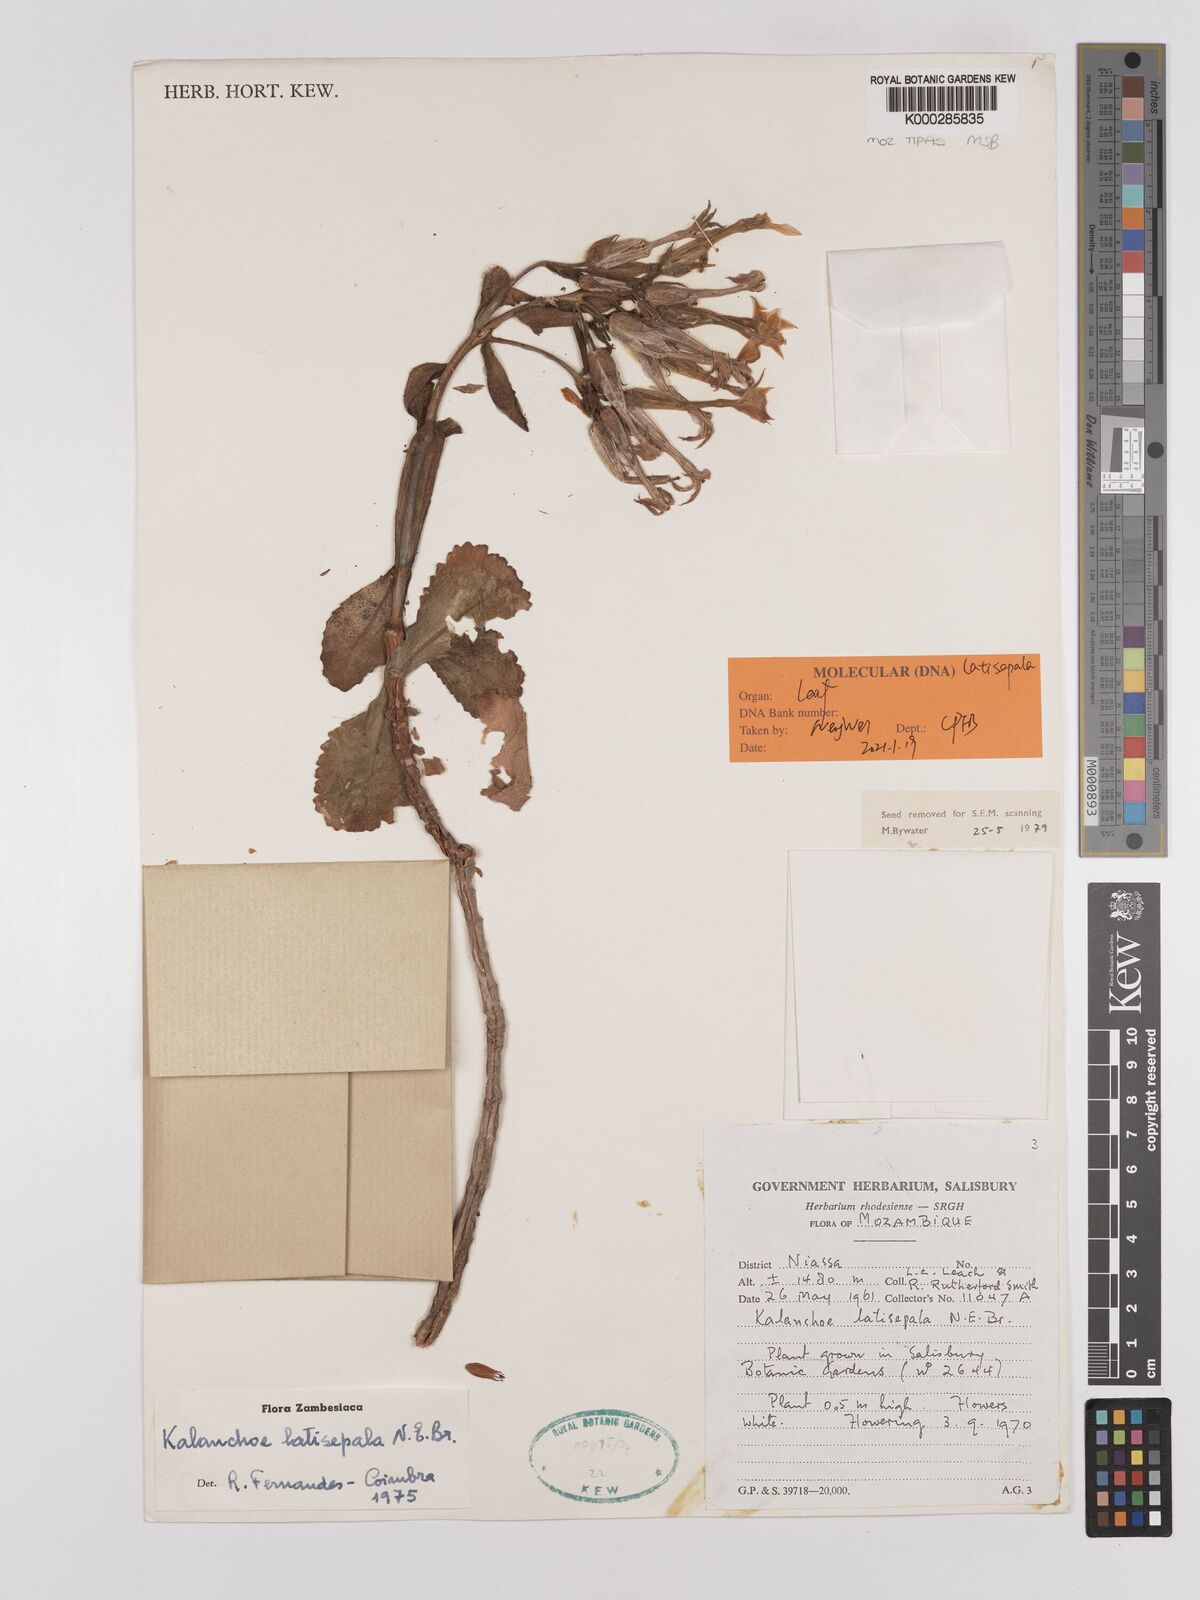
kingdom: Plantae
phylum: Tracheophyta
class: Magnoliopsida
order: Saxifragales
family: Crassulaceae
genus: Kalanchoe
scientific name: Kalanchoe latisepala
